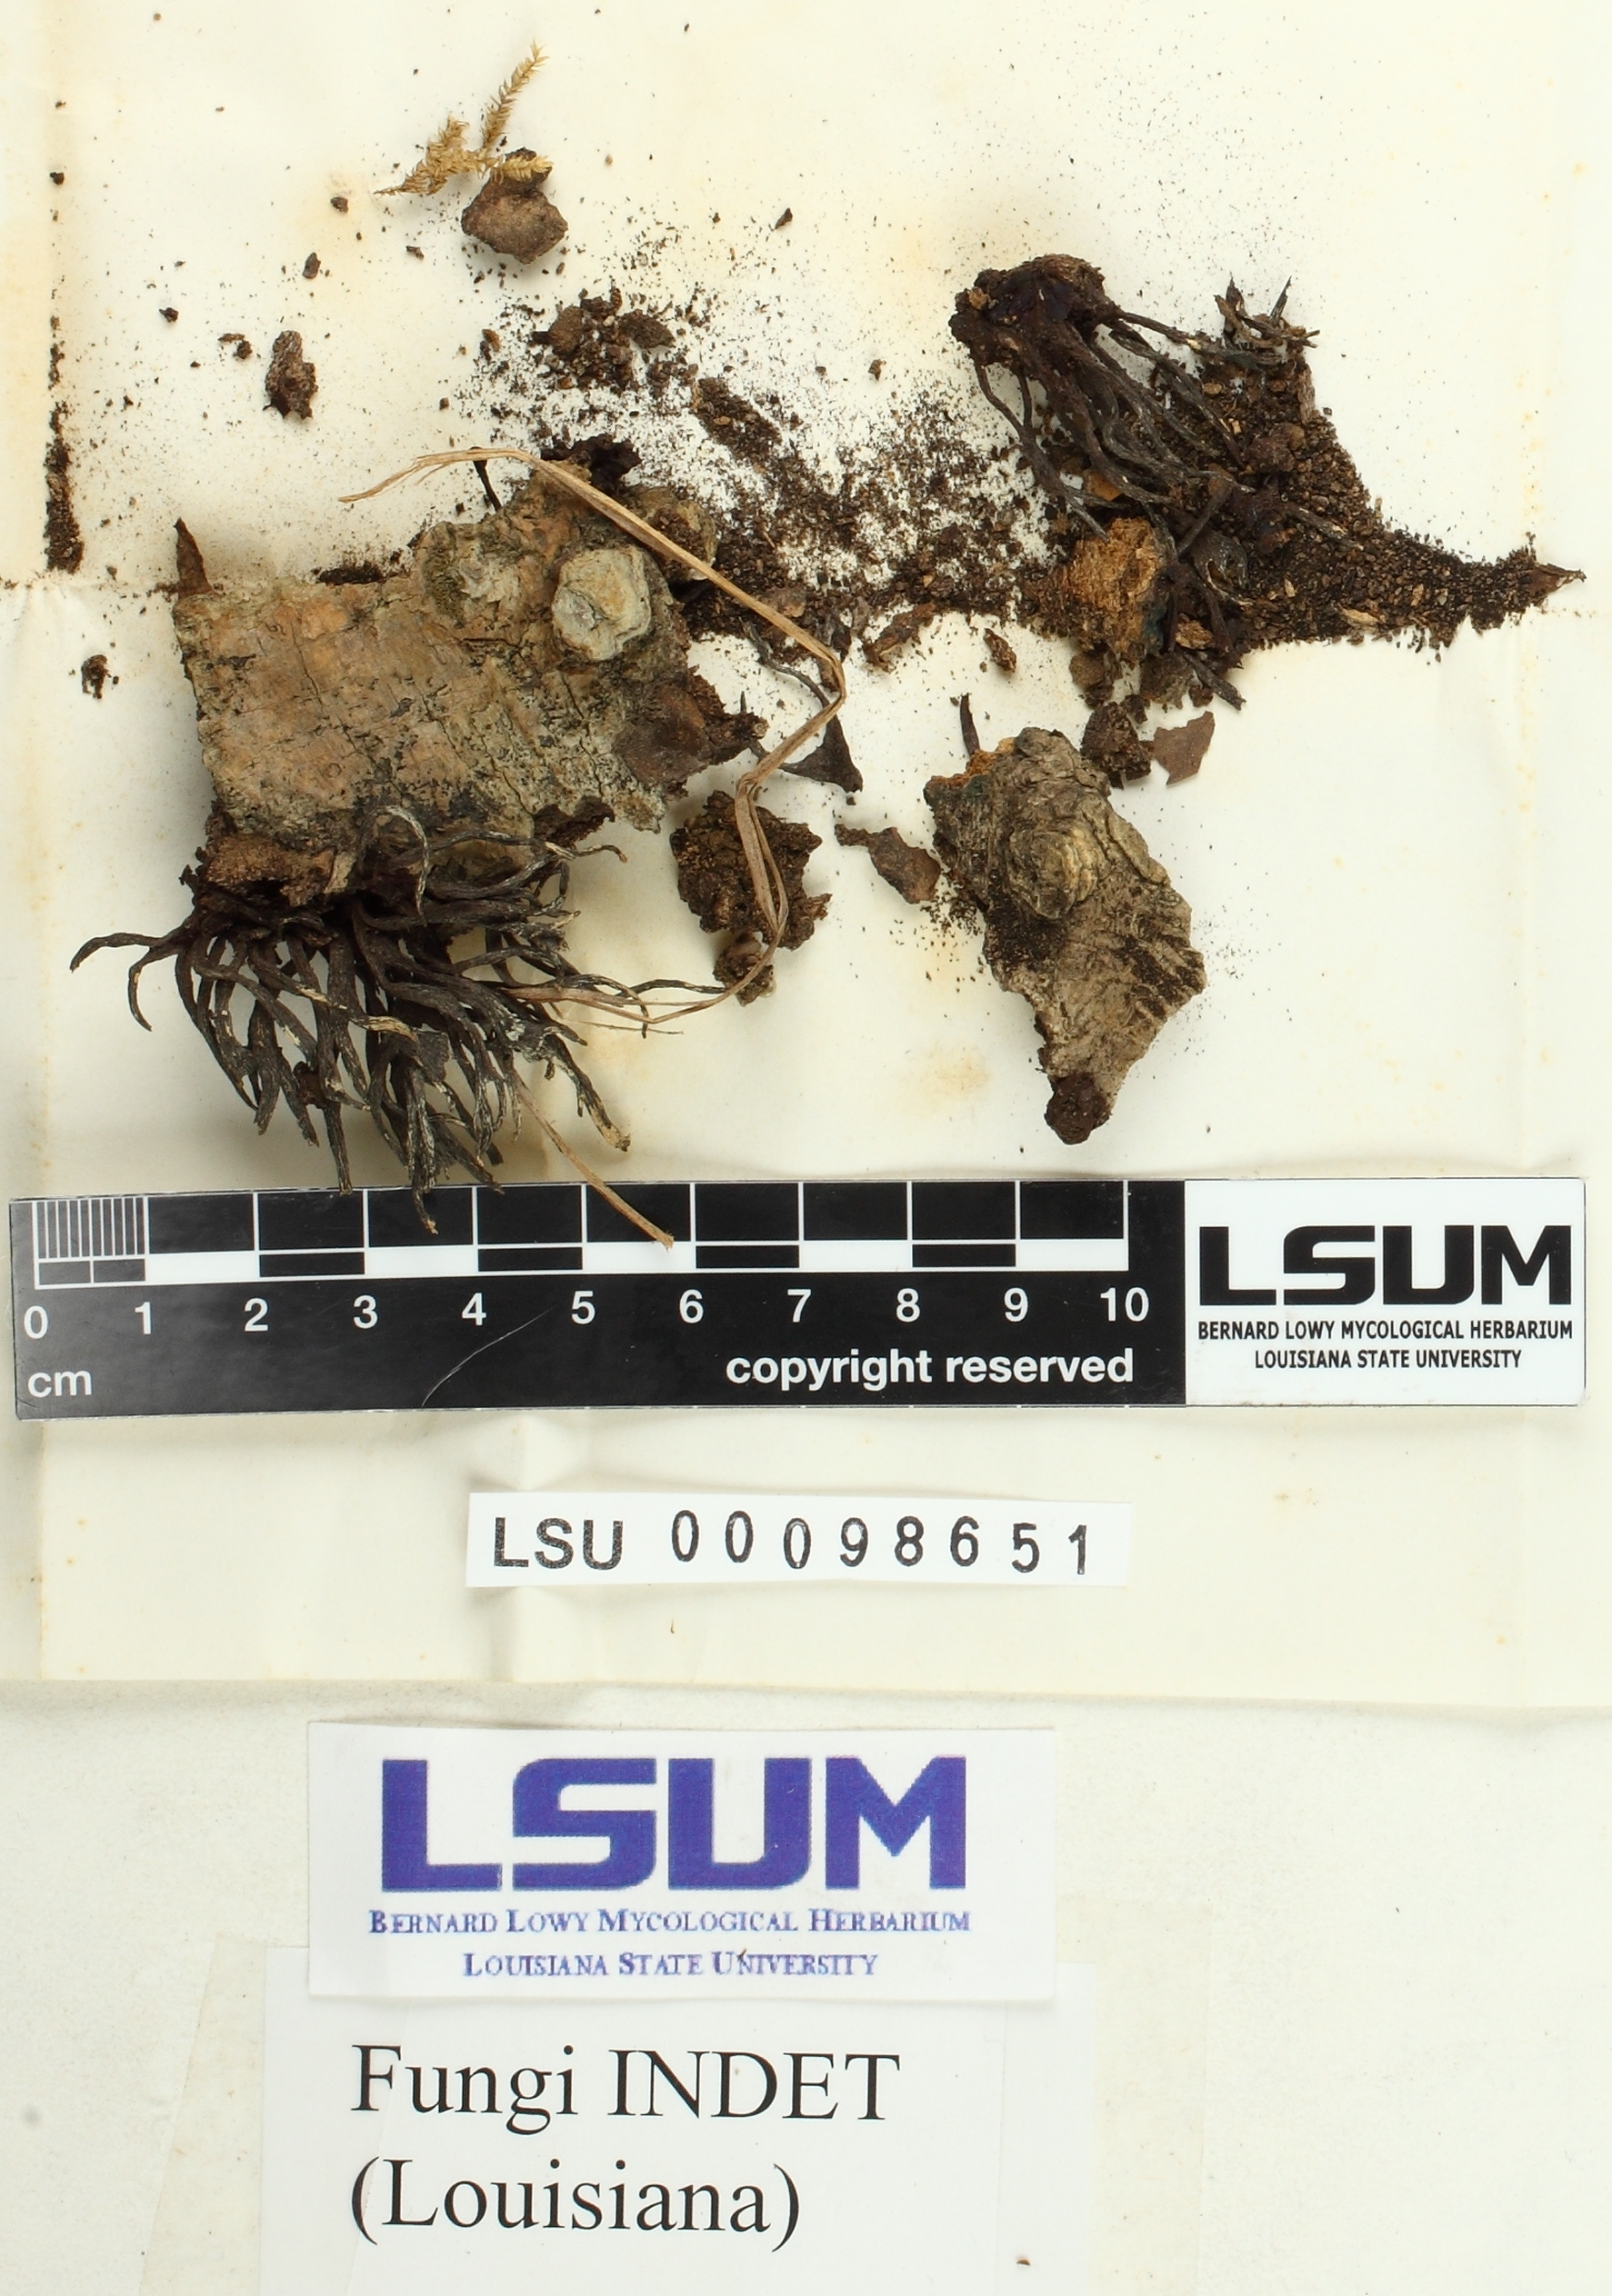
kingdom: Fungi
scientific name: Fungi
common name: Fungi
